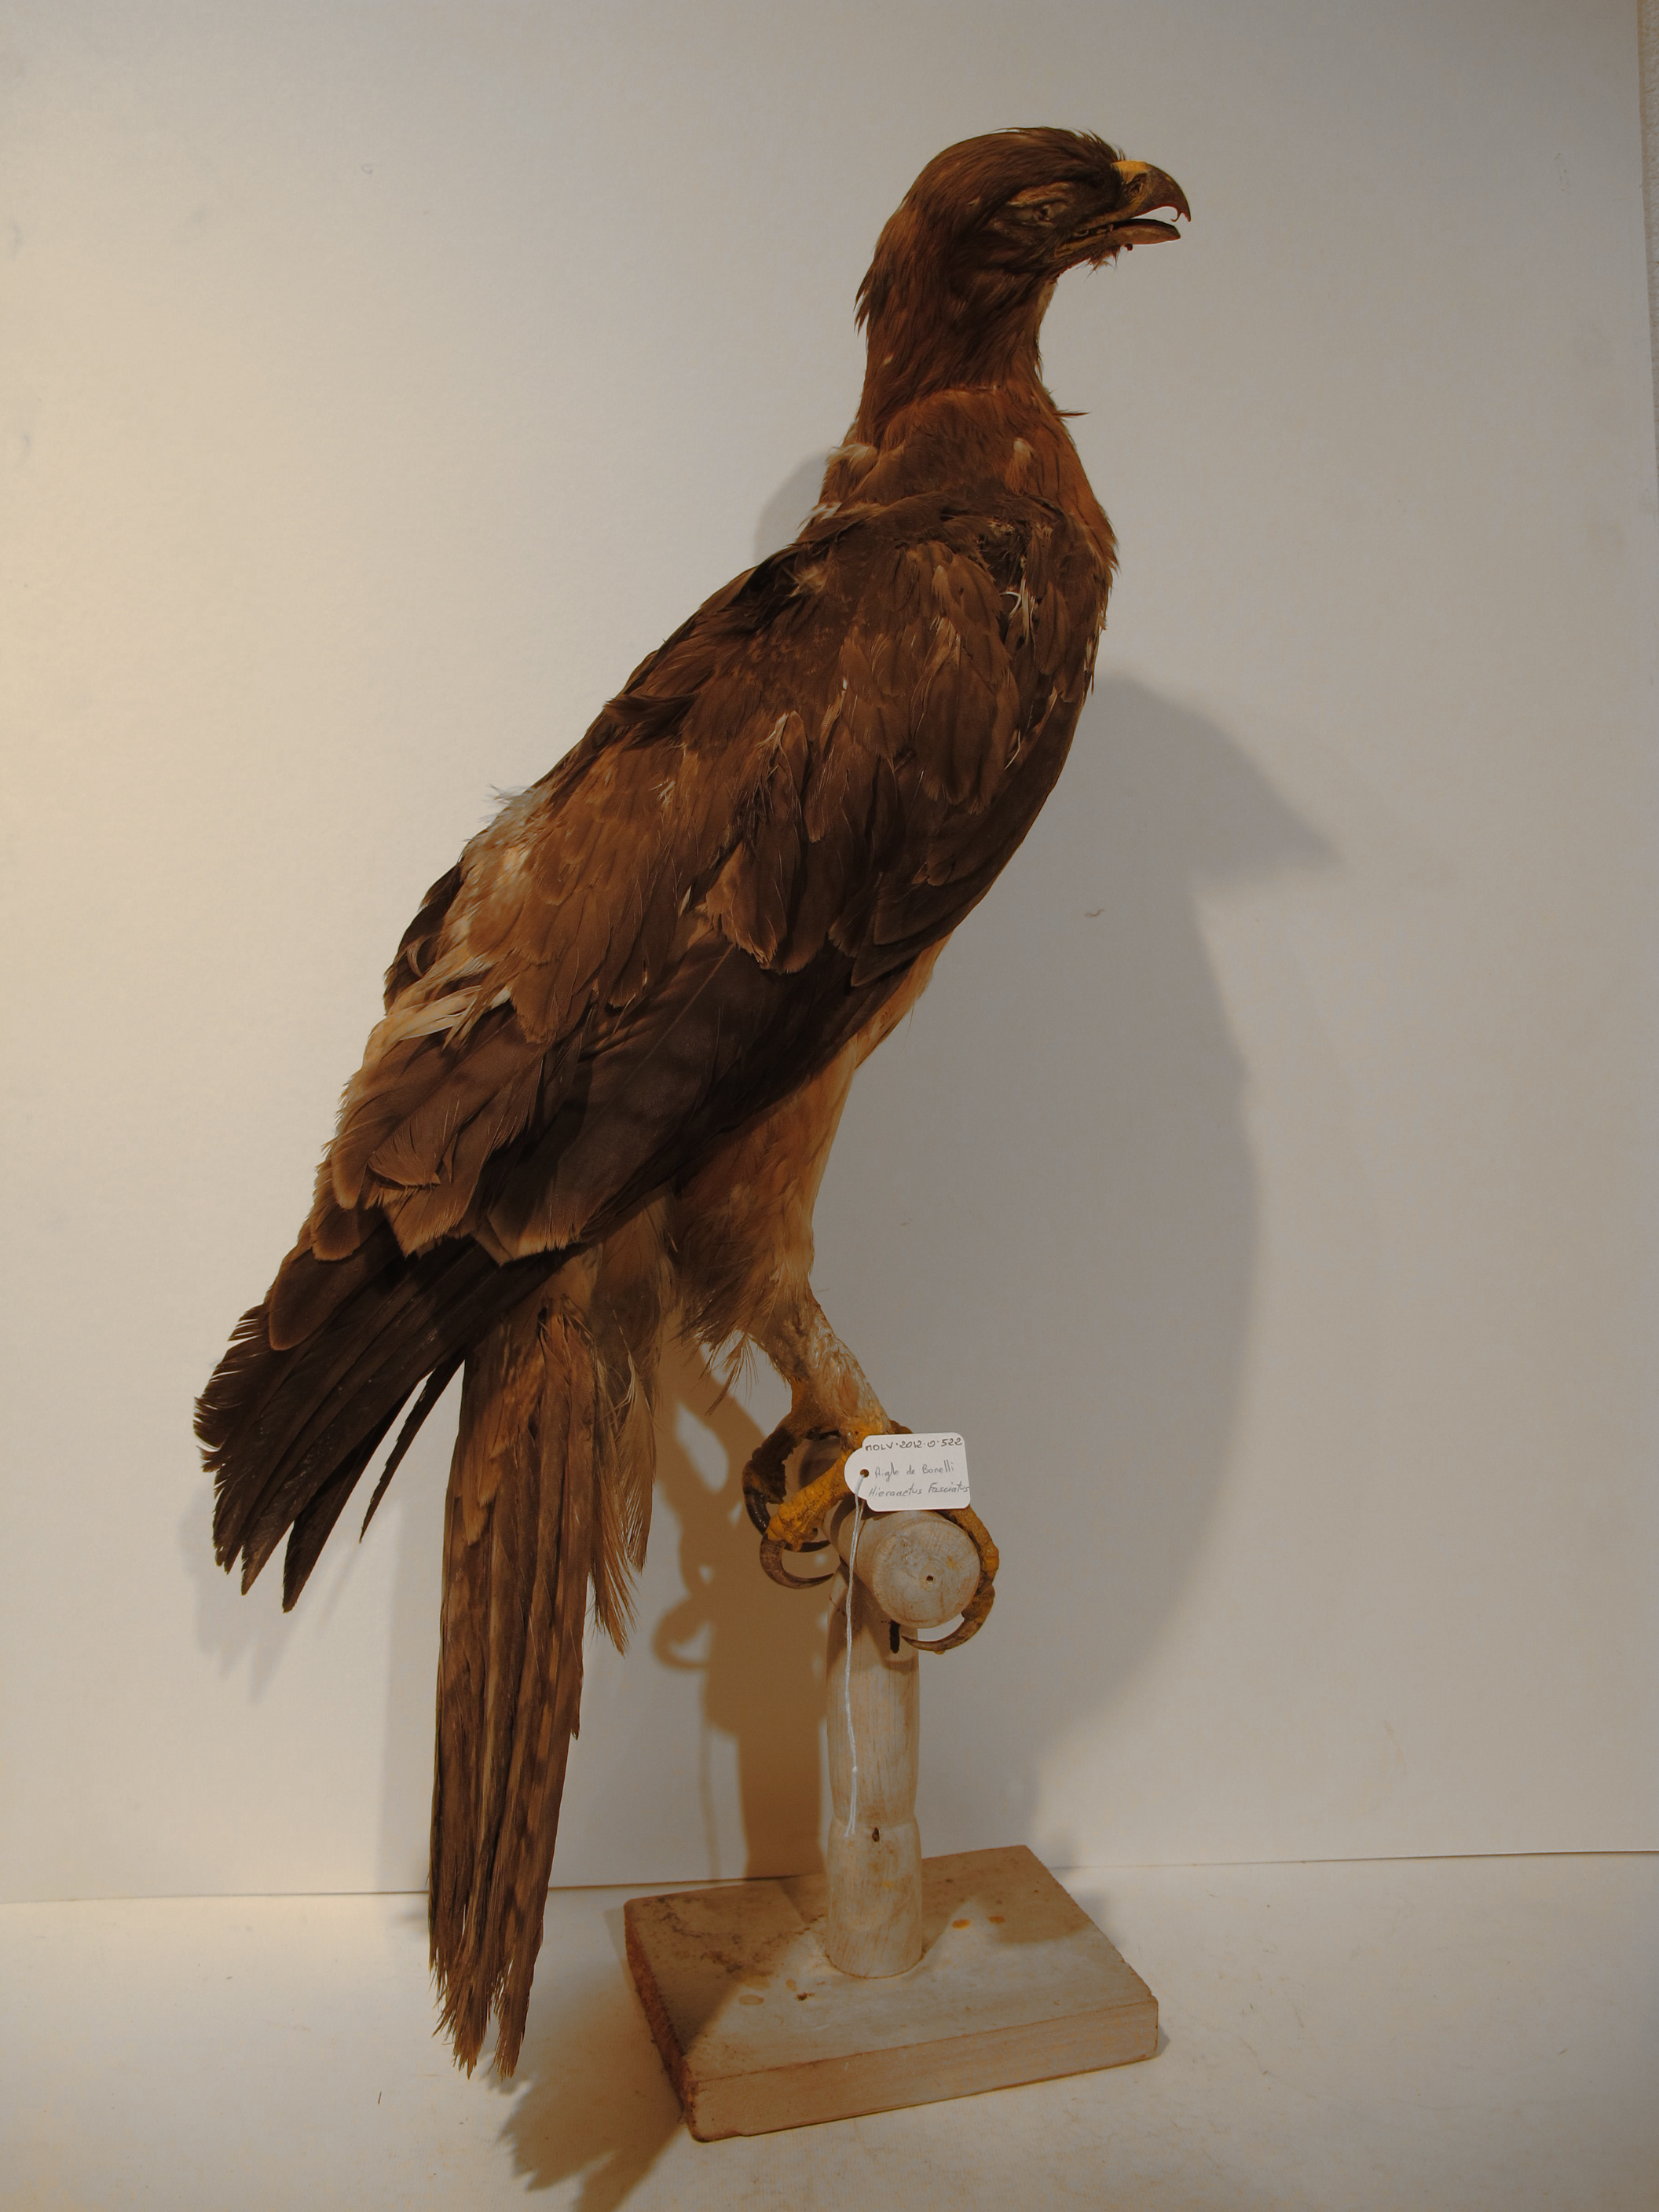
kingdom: Animalia
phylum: Chordata
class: Aves
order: Accipitriformes
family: Accipitridae
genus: Aquila
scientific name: Aquila fasciata
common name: Bonelli's Eagle
